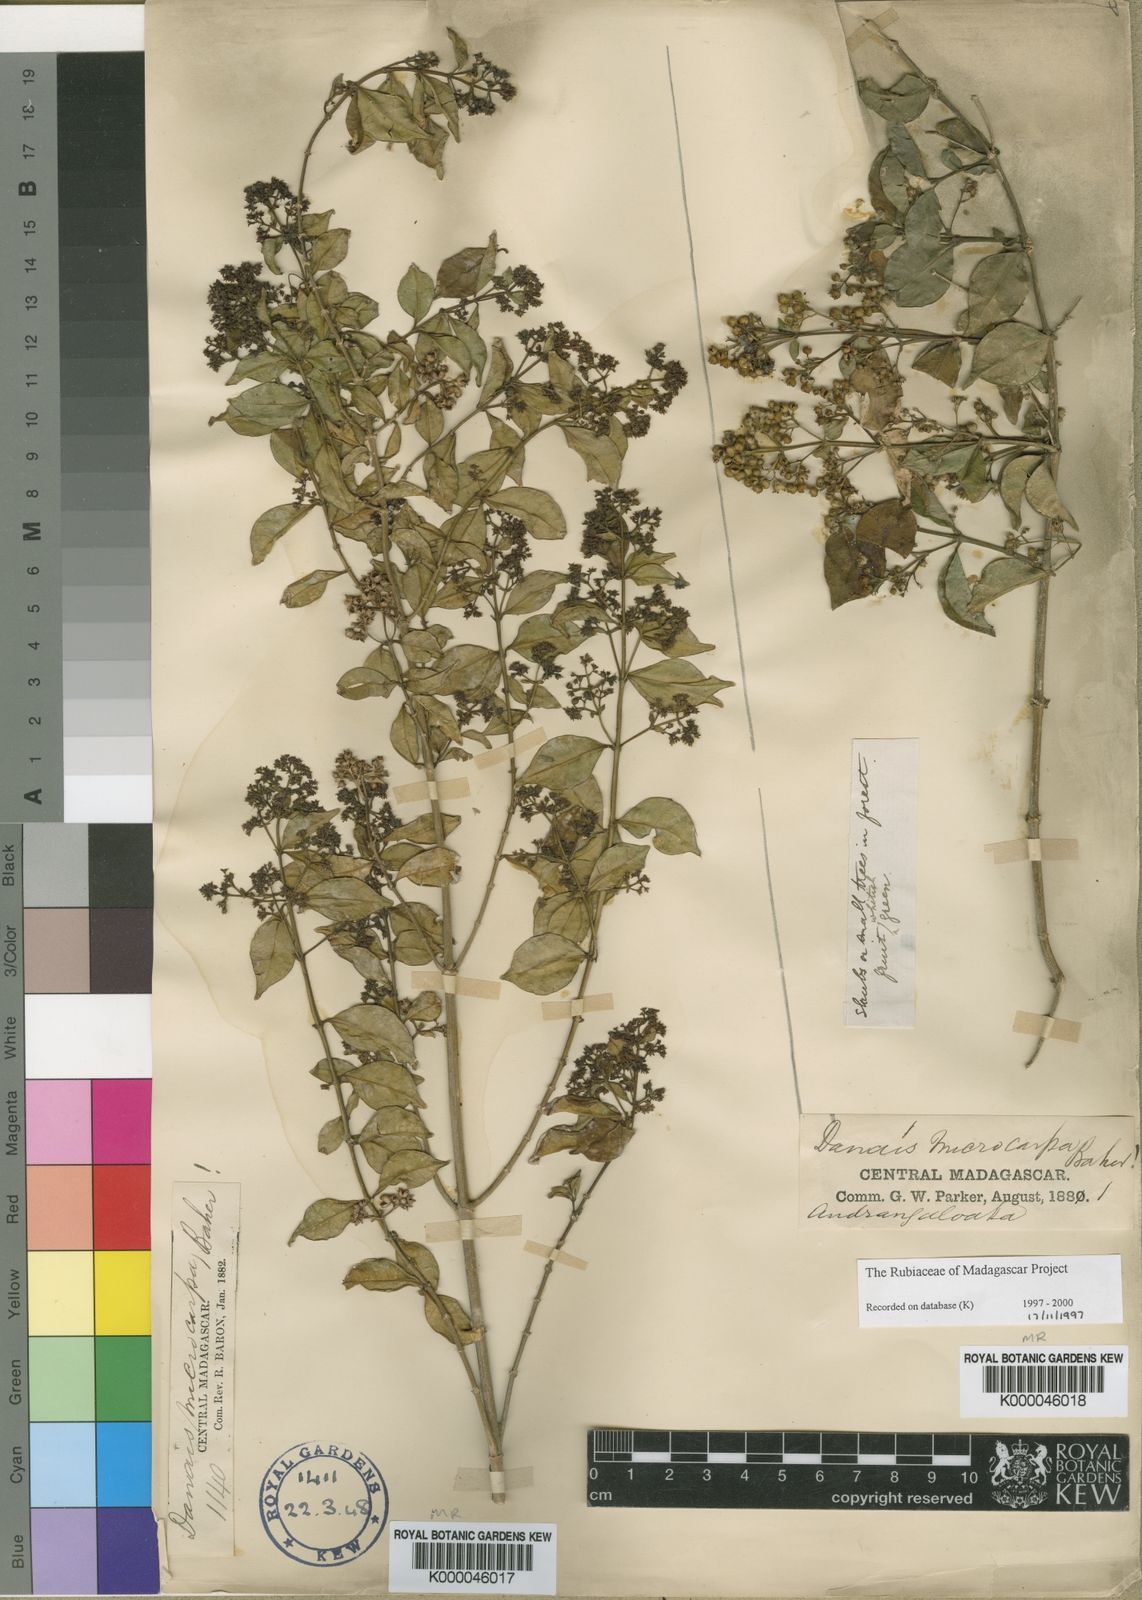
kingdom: Plantae
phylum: Tracheophyta
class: Magnoliopsida
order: Gentianales
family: Rubiaceae
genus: Danais
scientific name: Danais microcarpa
